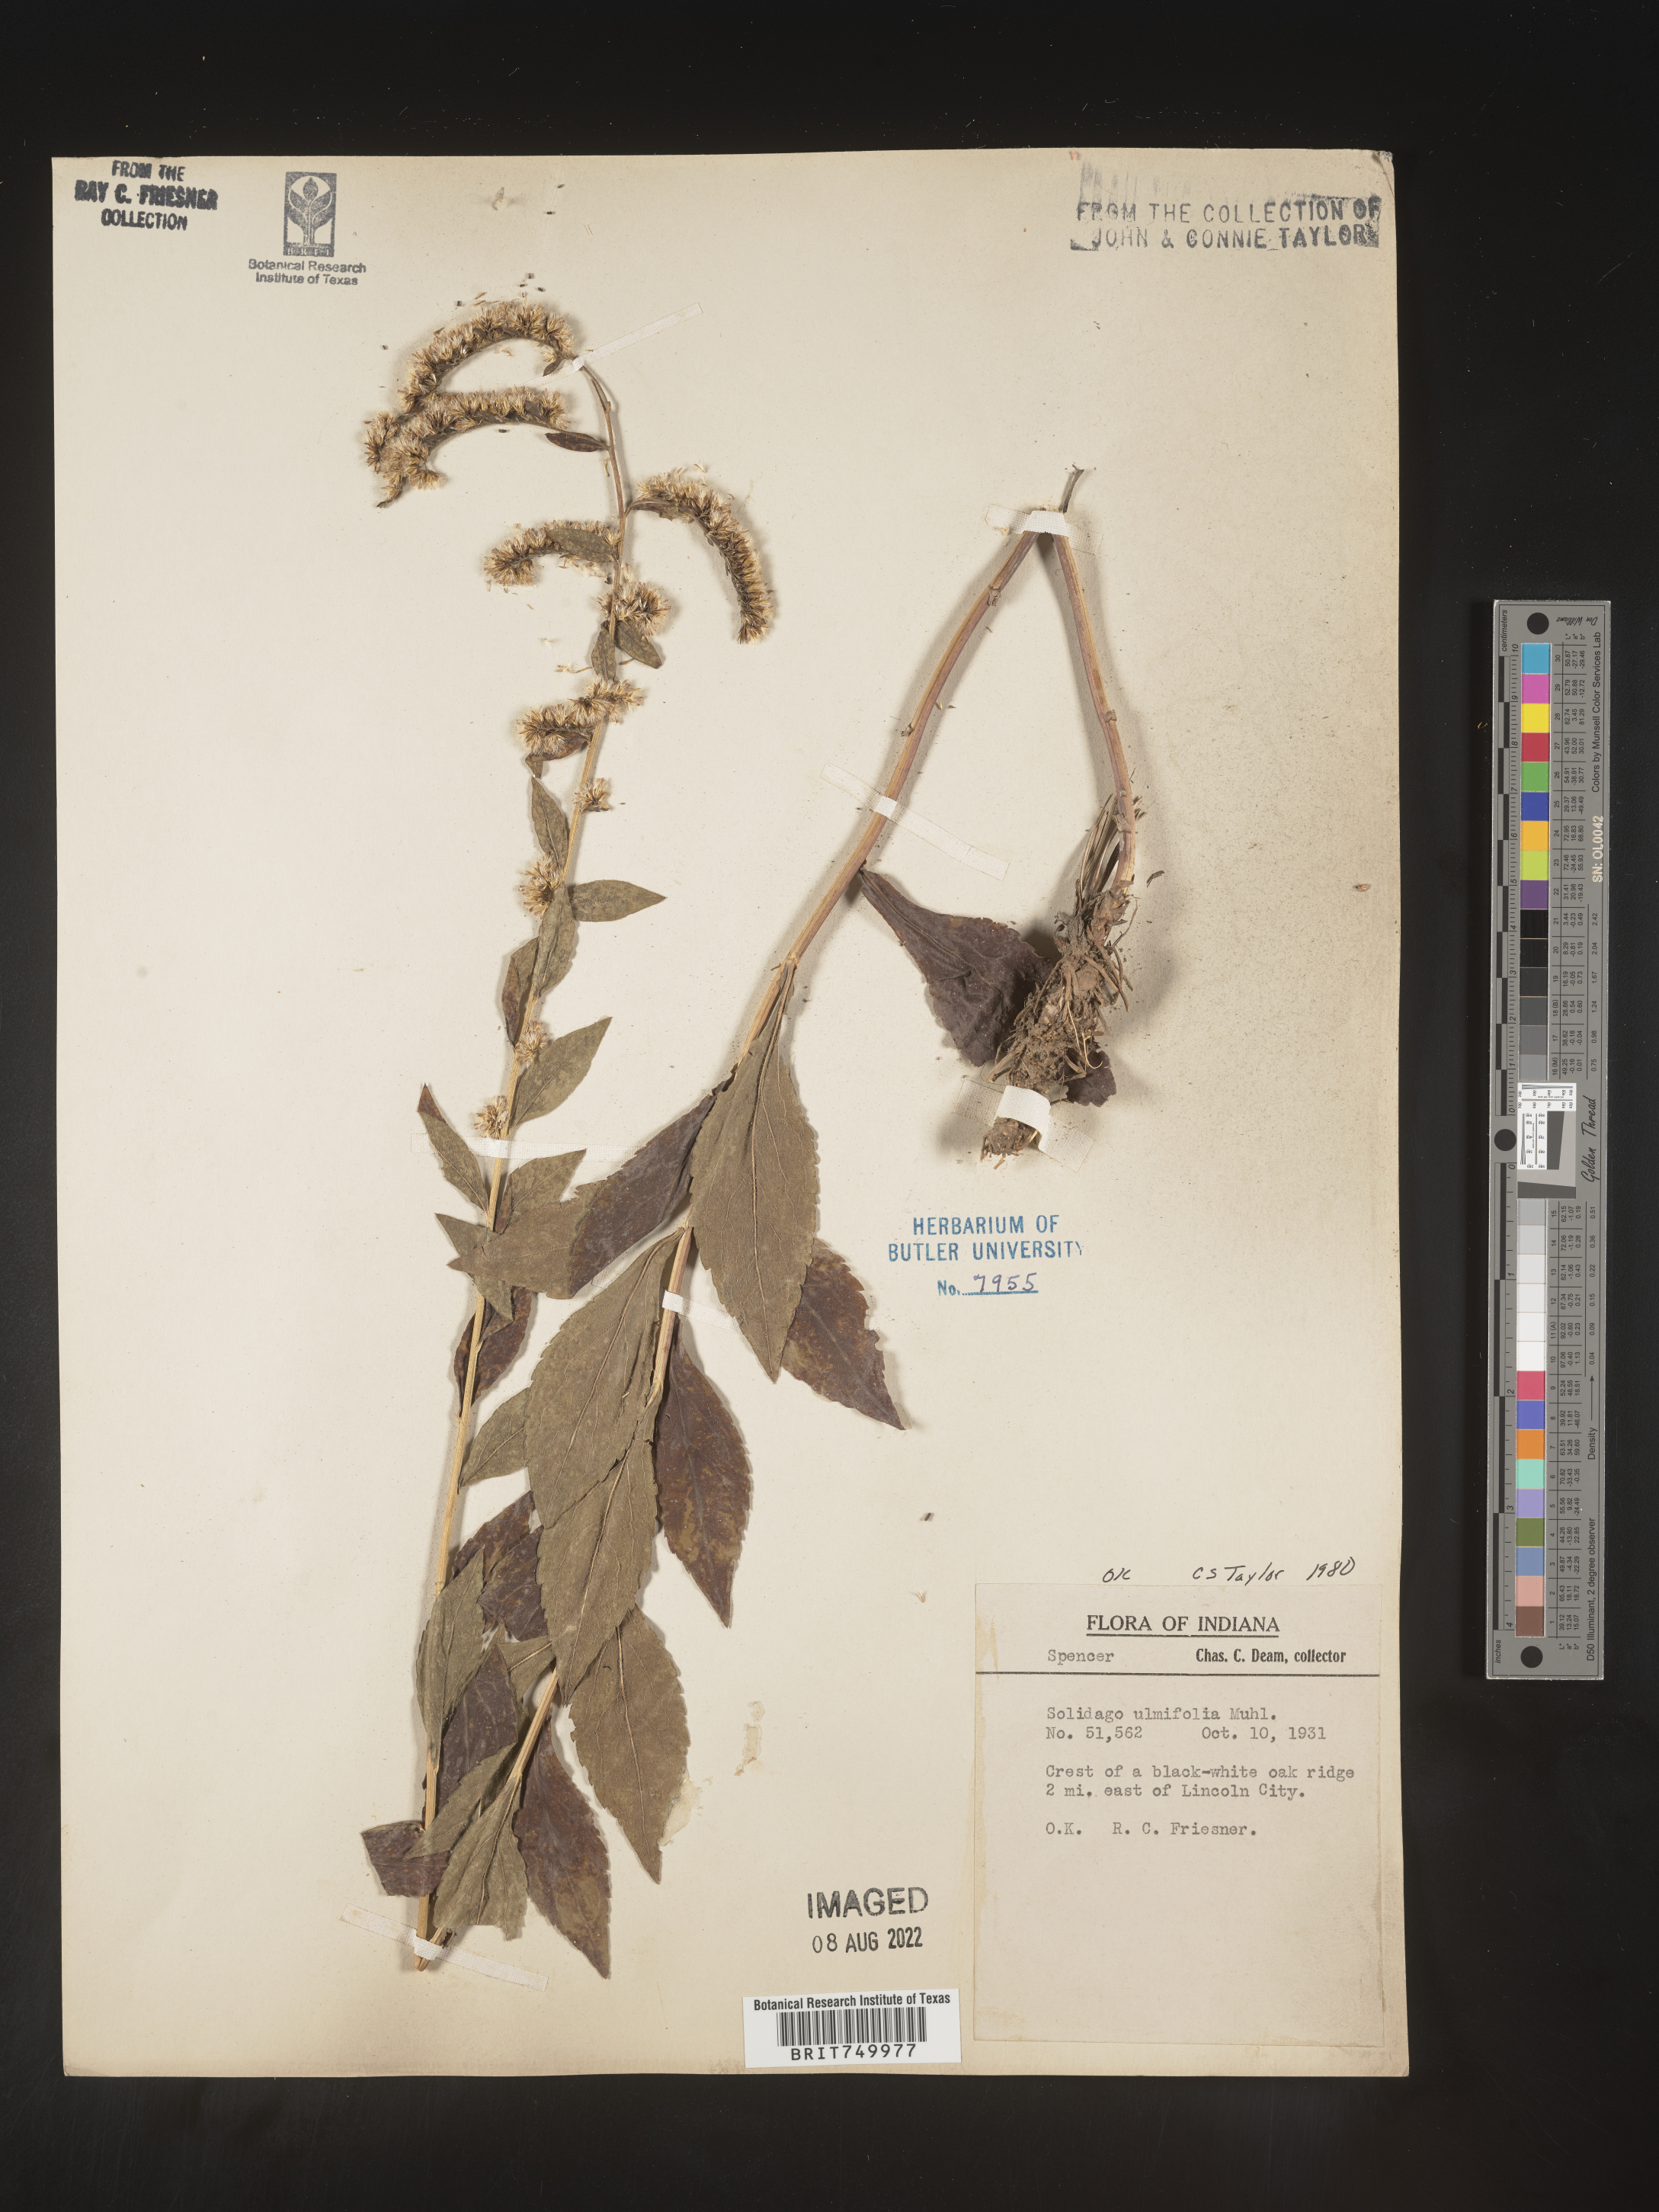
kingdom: Plantae
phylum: Tracheophyta
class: Magnoliopsida
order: Asterales
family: Asteraceae
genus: Solidago
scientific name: Solidago ulmifolia
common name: Elm-leaf goldenrod
